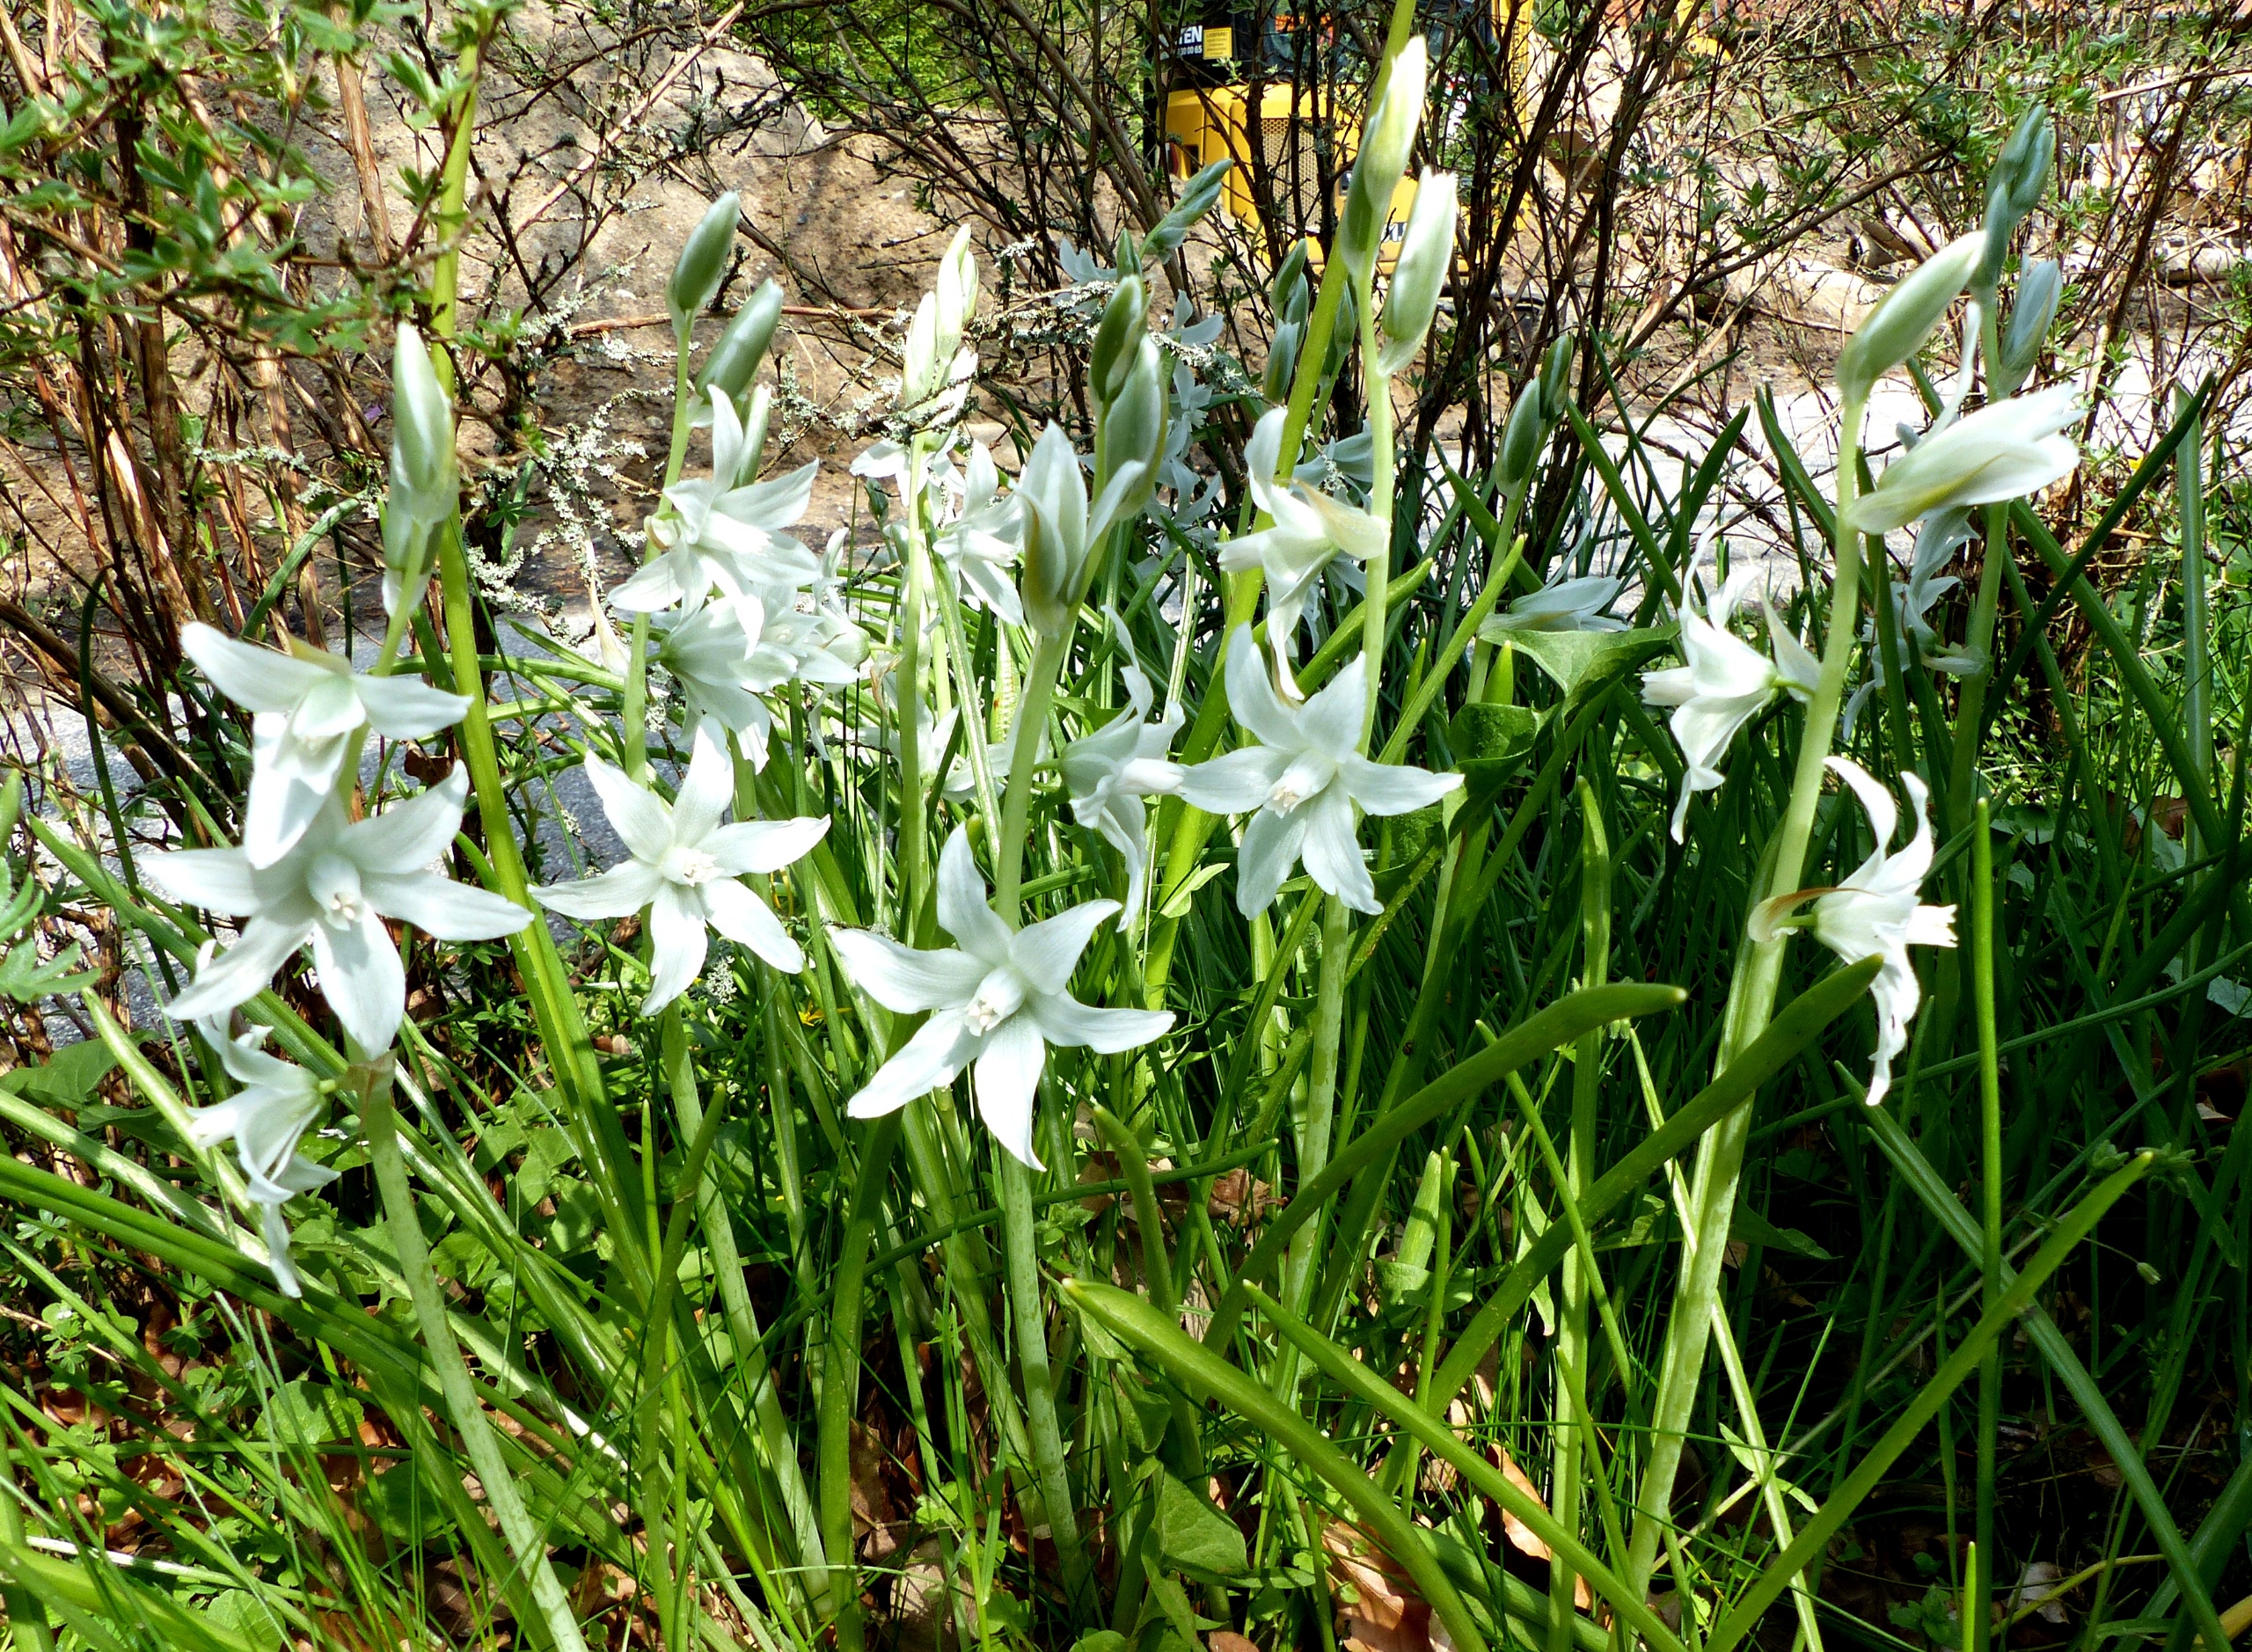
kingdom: Plantae
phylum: Tracheophyta
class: Liliopsida
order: Asparagales
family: Asparagaceae
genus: Ornithogalum
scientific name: Ornithogalum nutans
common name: Nikkende fuglemælk
